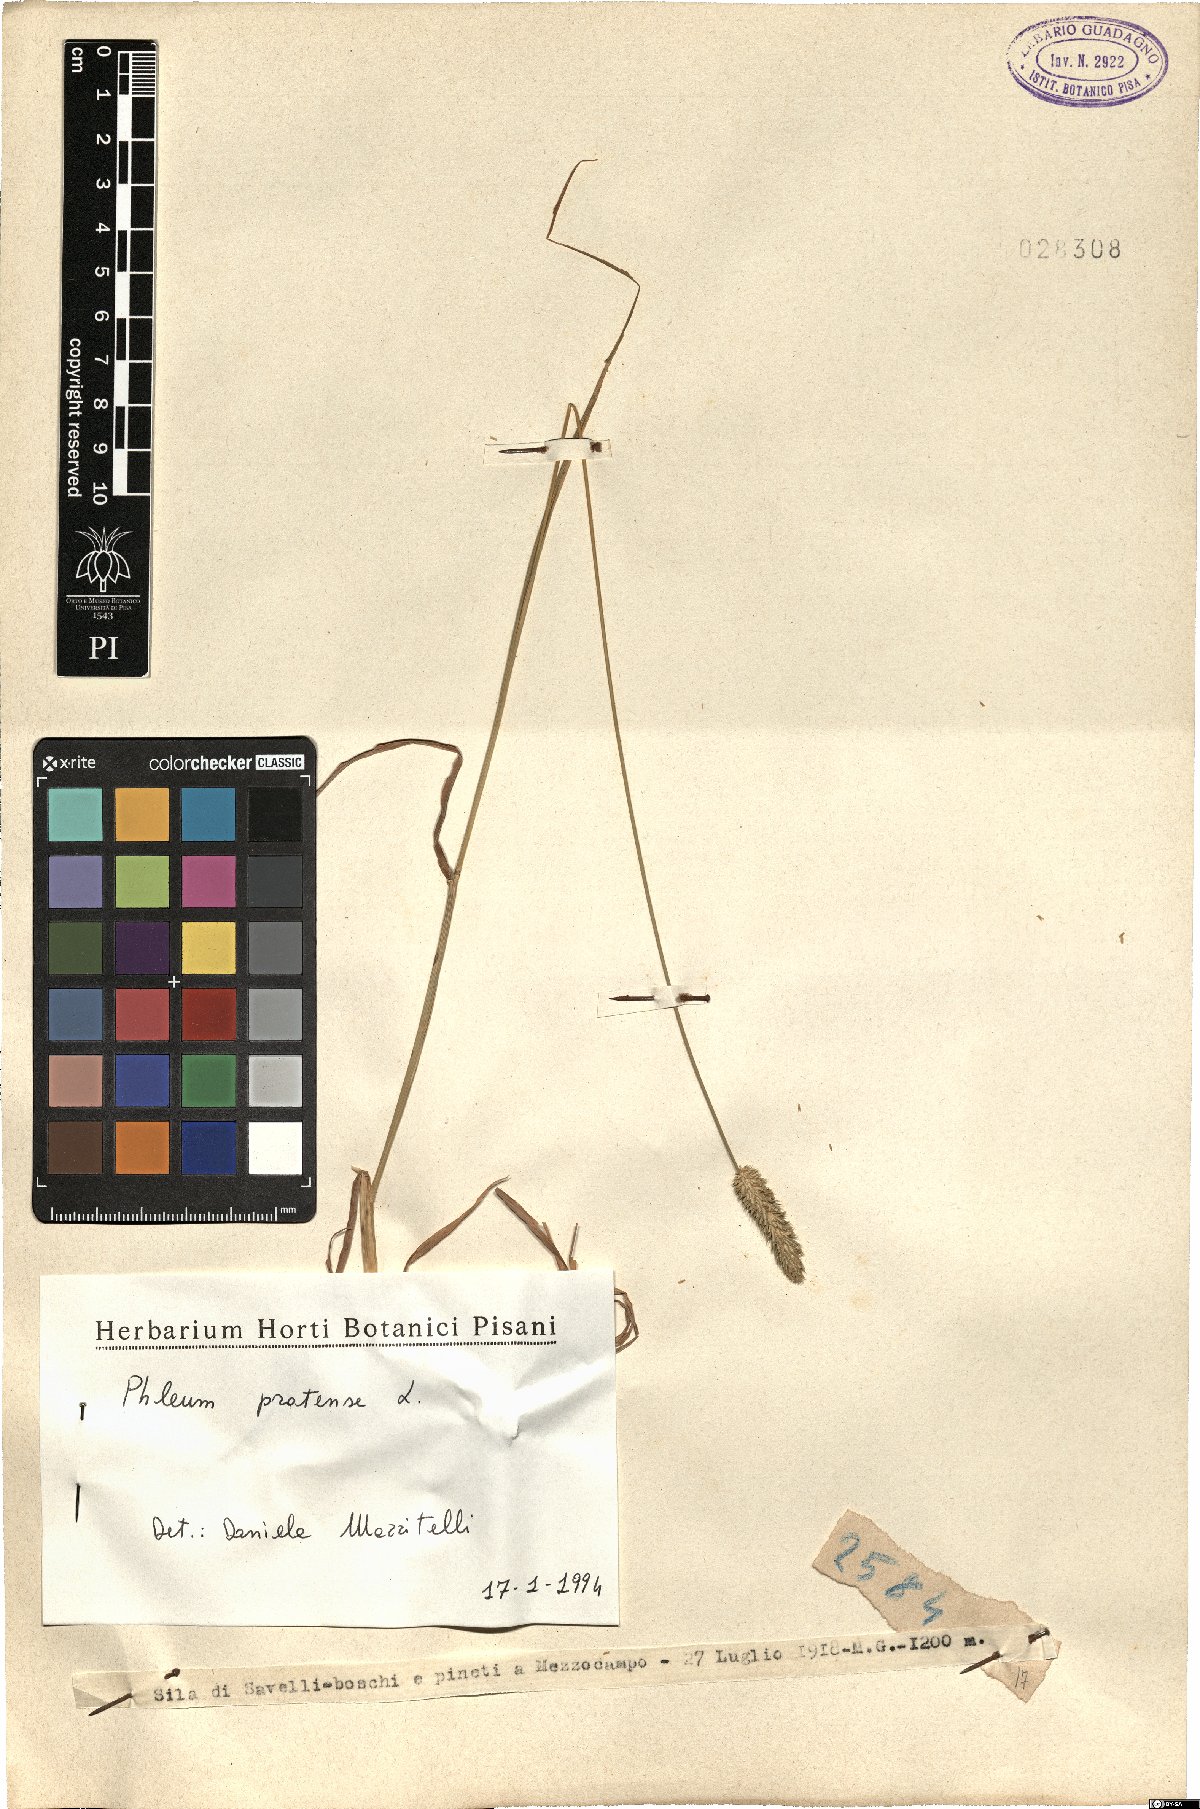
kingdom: Plantae
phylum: Tracheophyta
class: Liliopsida
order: Poales
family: Poaceae
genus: Phleum
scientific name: Phleum pratense
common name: Timothy grass
